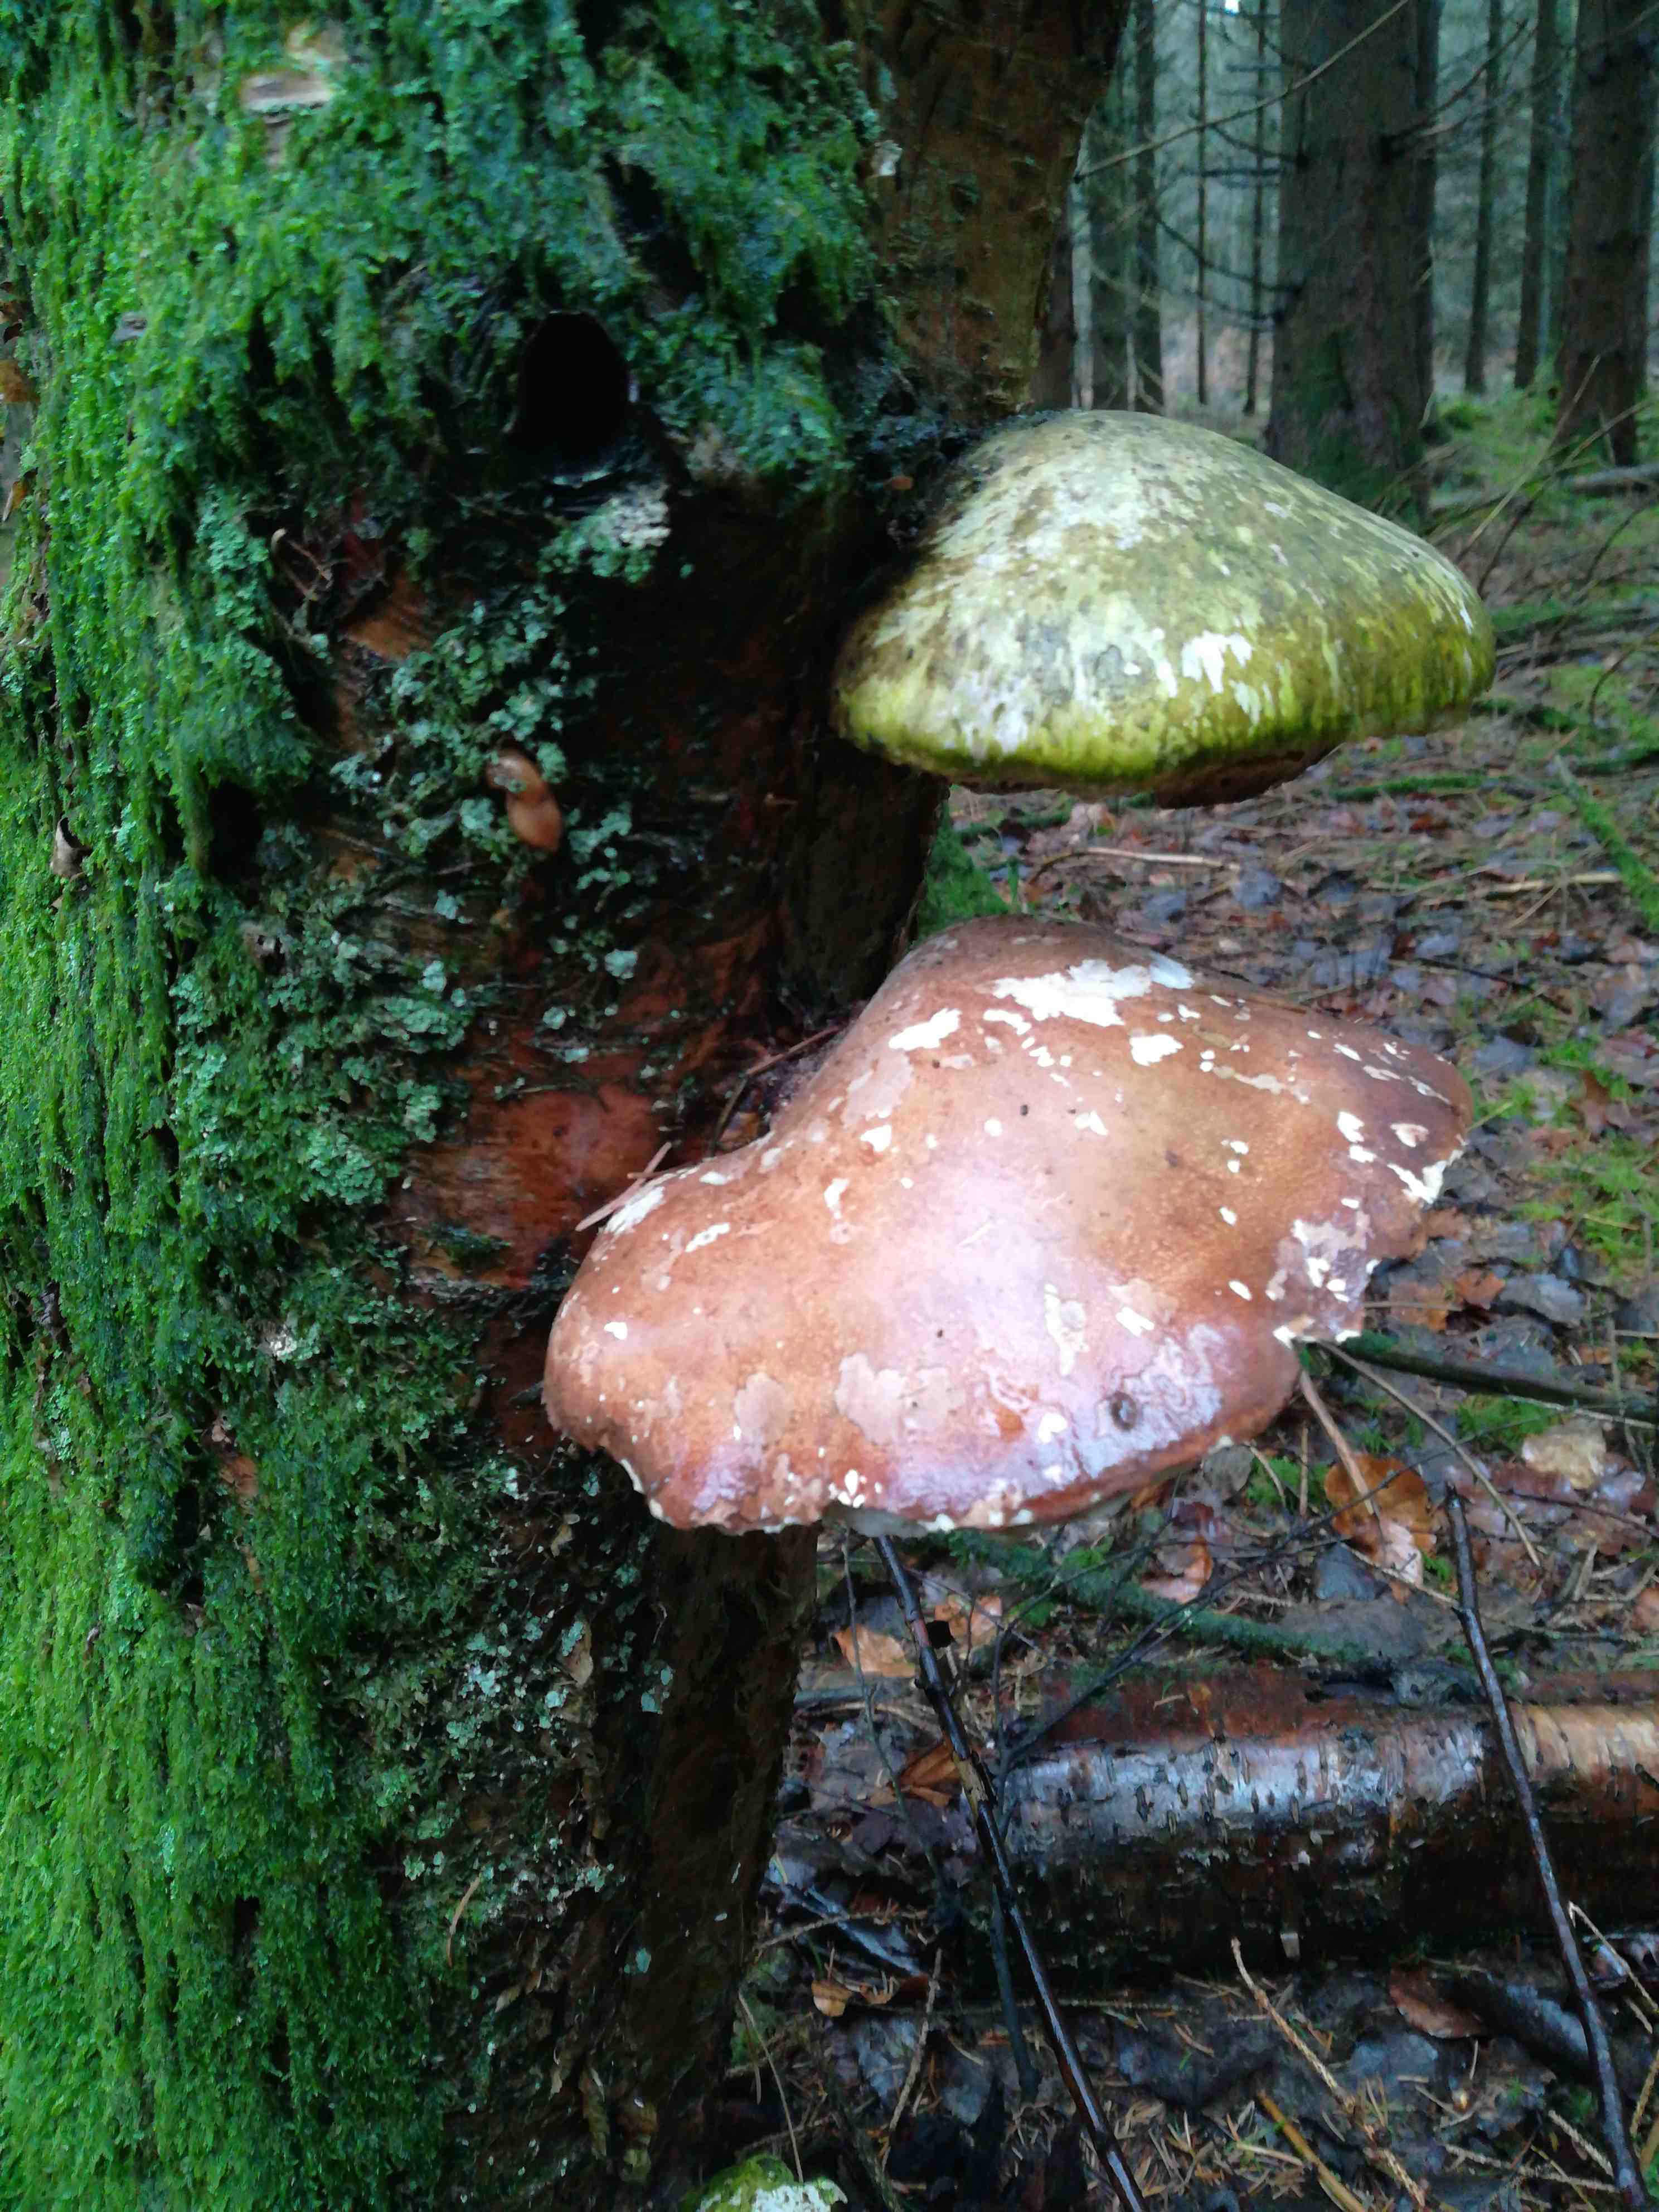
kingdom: Fungi
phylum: Basidiomycota
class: Agaricomycetes
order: Polyporales
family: Fomitopsidaceae
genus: Fomitopsis
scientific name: Fomitopsis betulina
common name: birkeporesvamp
